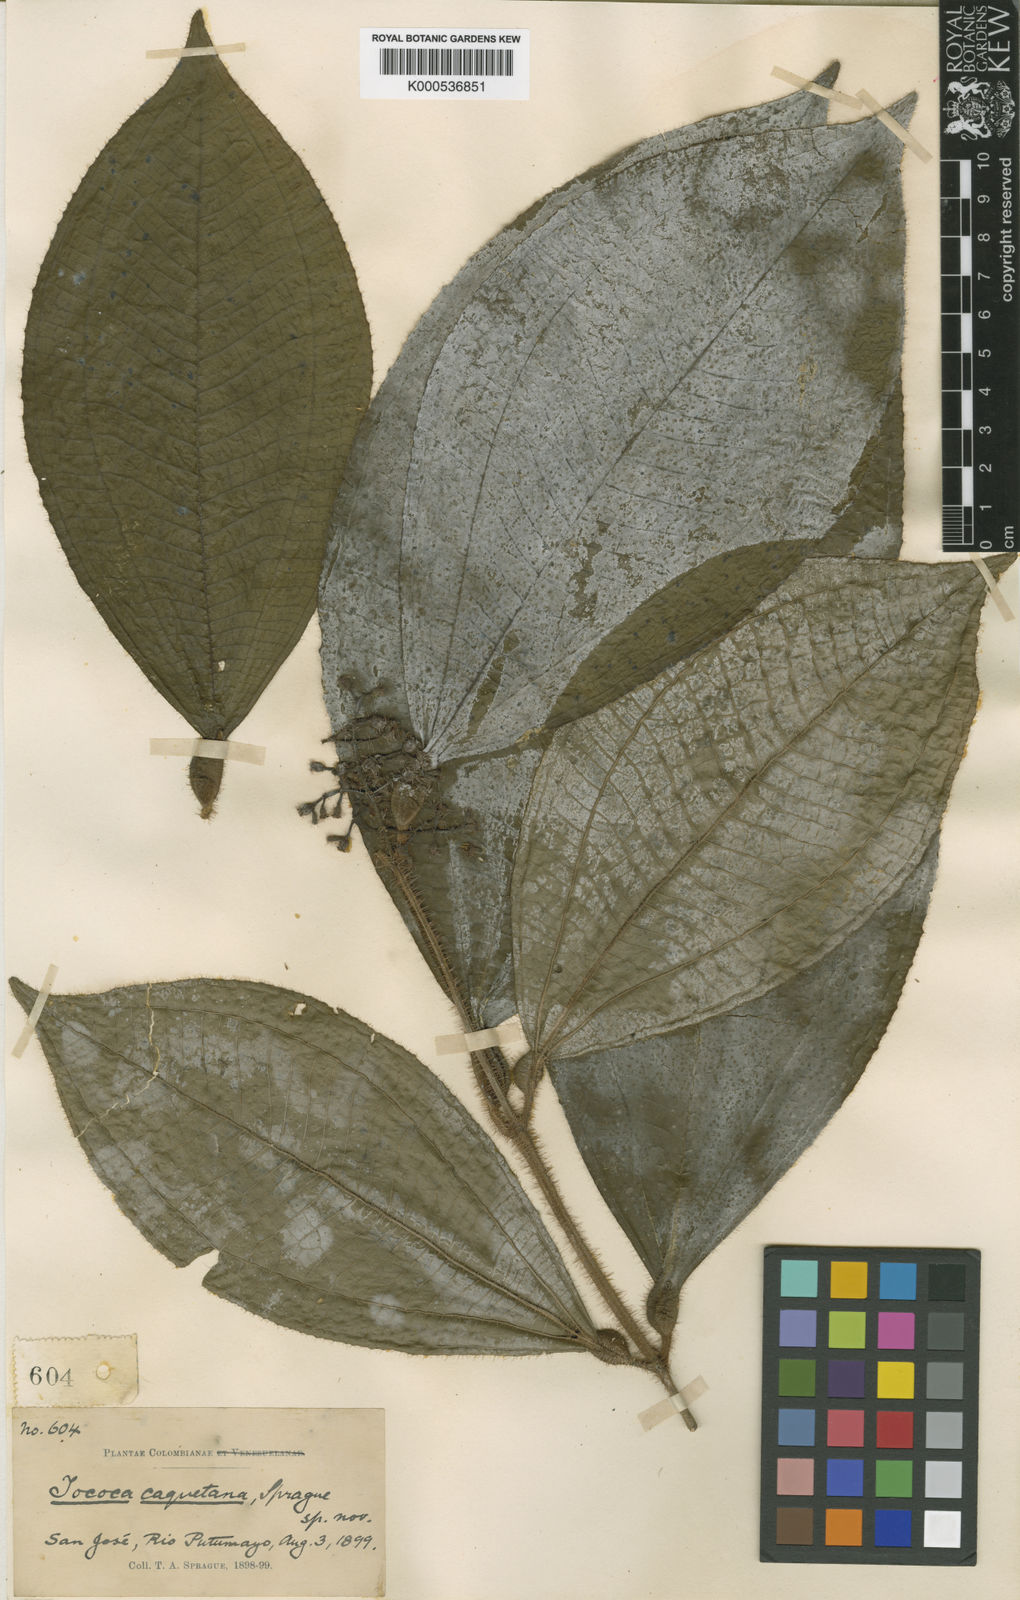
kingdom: Plantae
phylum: Tracheophyta
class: Magnoliopsida
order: Myrtales
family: Melastomataceae
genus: Miconia
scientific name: Miconia caquetana
